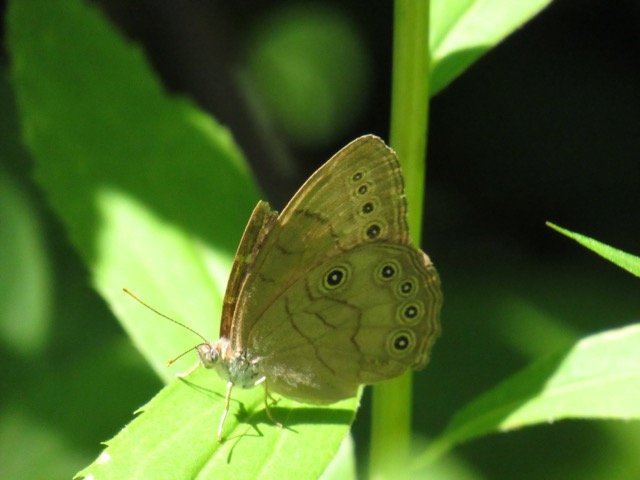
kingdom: Animalia
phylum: Arthropoda
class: Insecta
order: Lepidoptera
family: Nymphalidae
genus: Lethe
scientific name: Lethe eurydice
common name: Appalachian Eyed Brown
